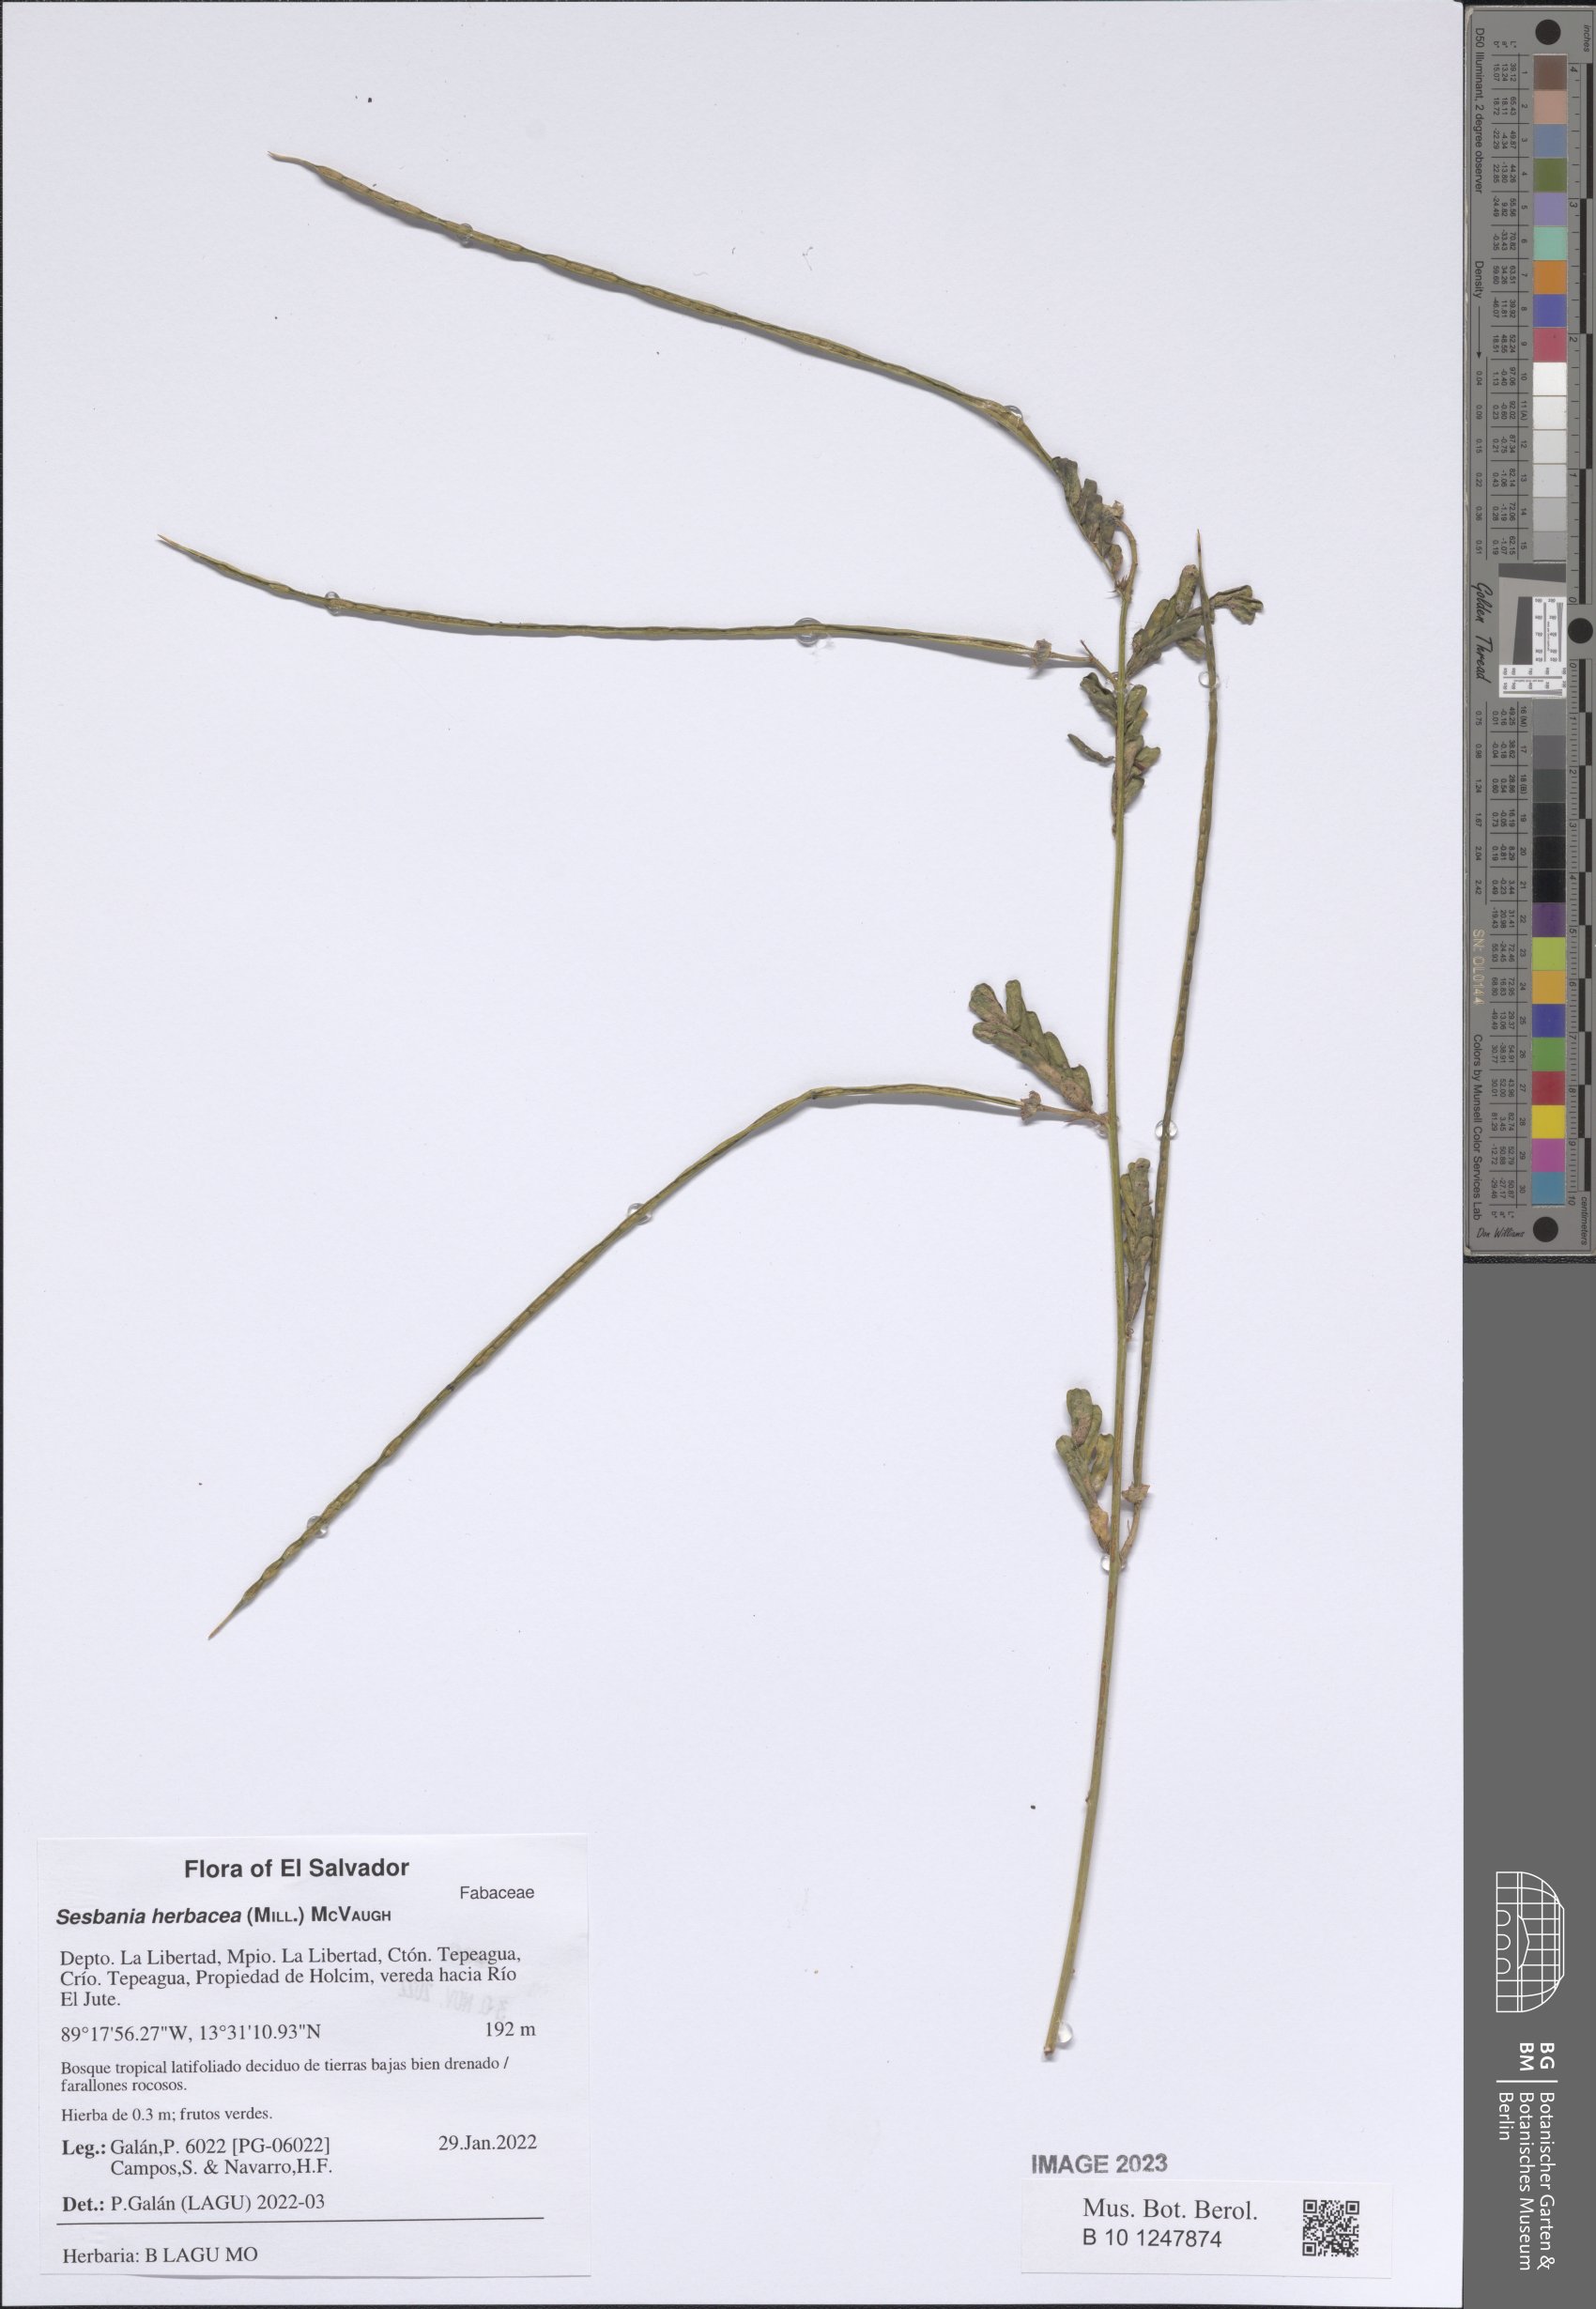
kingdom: Plantae
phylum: Tracheophyta
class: Magnoliopsida
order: Fabales
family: Fabaceae
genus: Sesbania
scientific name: Sesbania herbacea
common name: Bigpod sesbania
